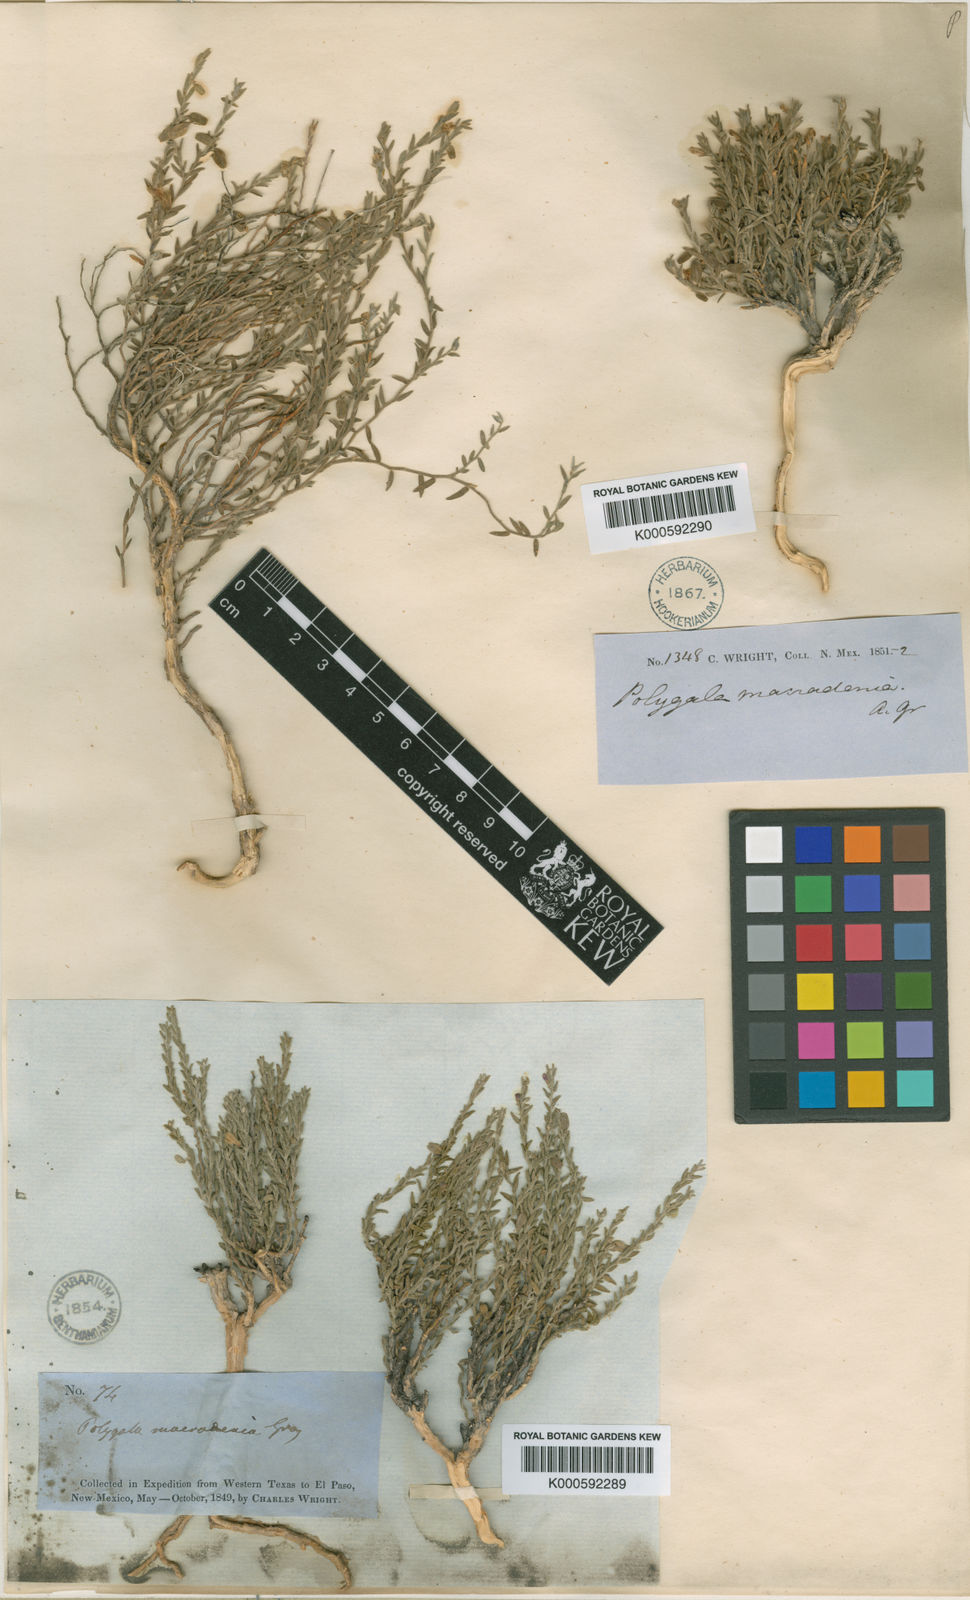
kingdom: Plantae
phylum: Tracheophyta
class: Magnoliopsida
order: Fabales
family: Polygalaceae
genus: Hebecarpa
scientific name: Hebecarpa macradenia
